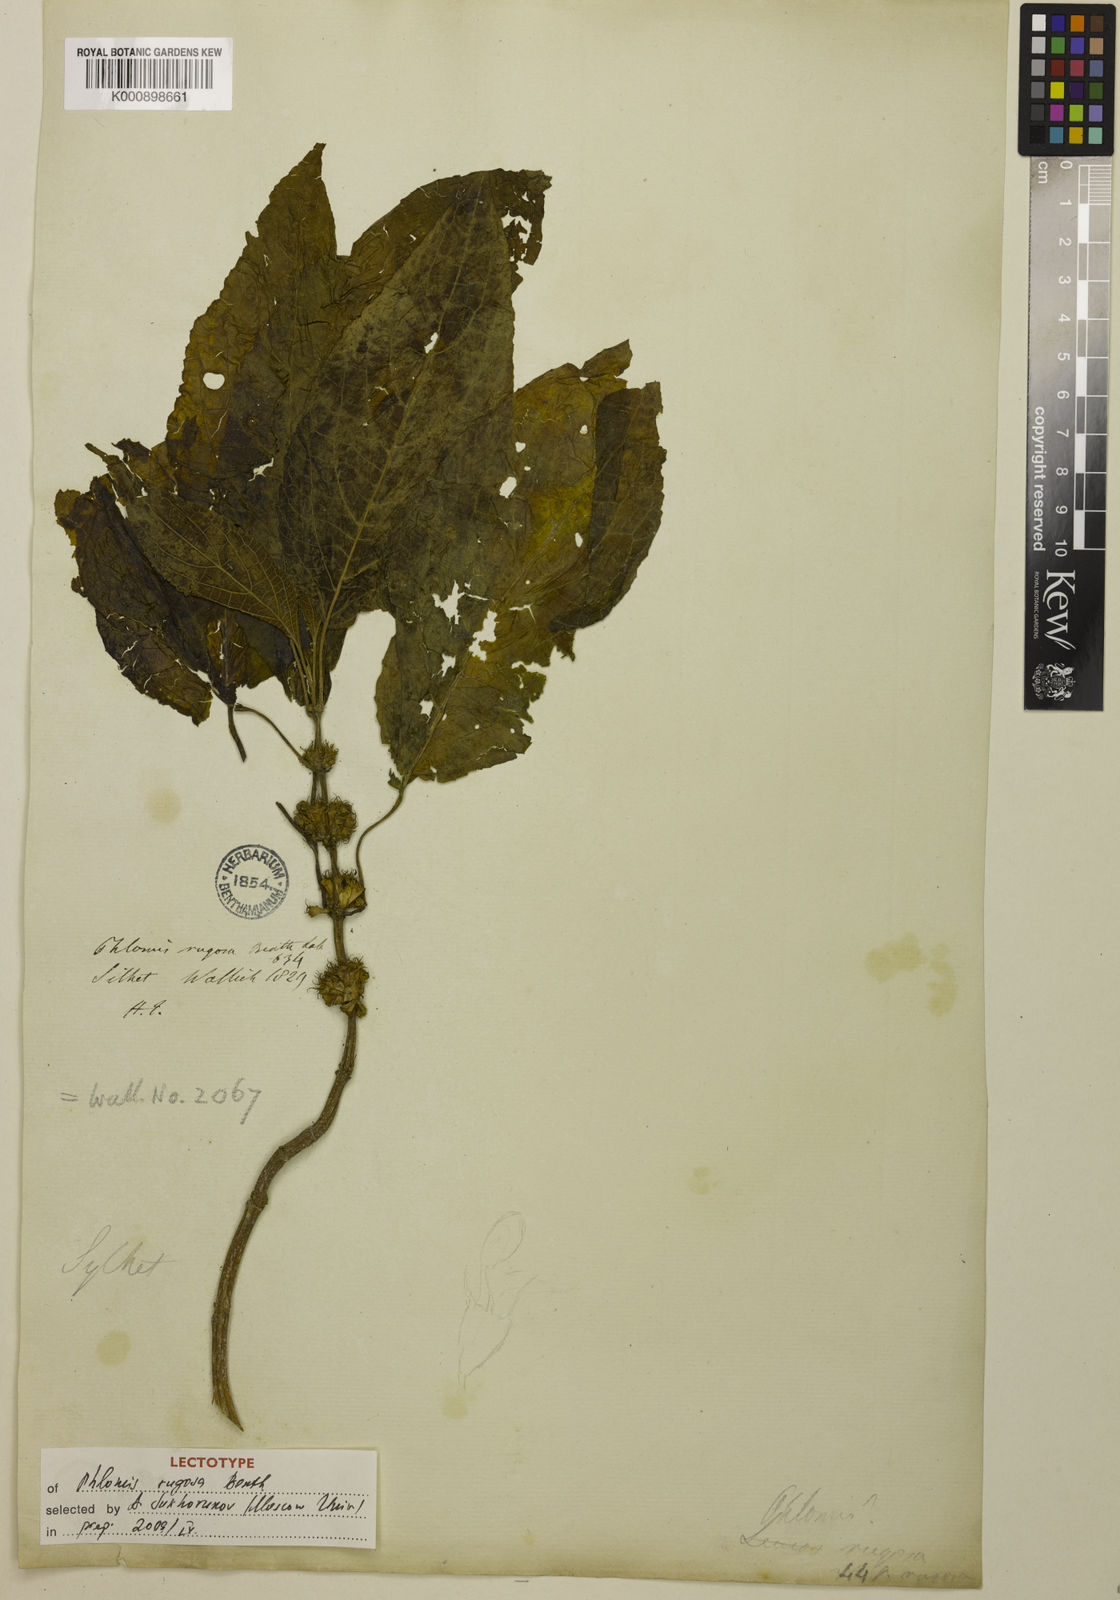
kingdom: Plantae
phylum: Tracheophyta
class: Magnoliopsida
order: Lamiales
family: Lamiaceae
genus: Paraphlomis
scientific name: Paraphlomis javanica
